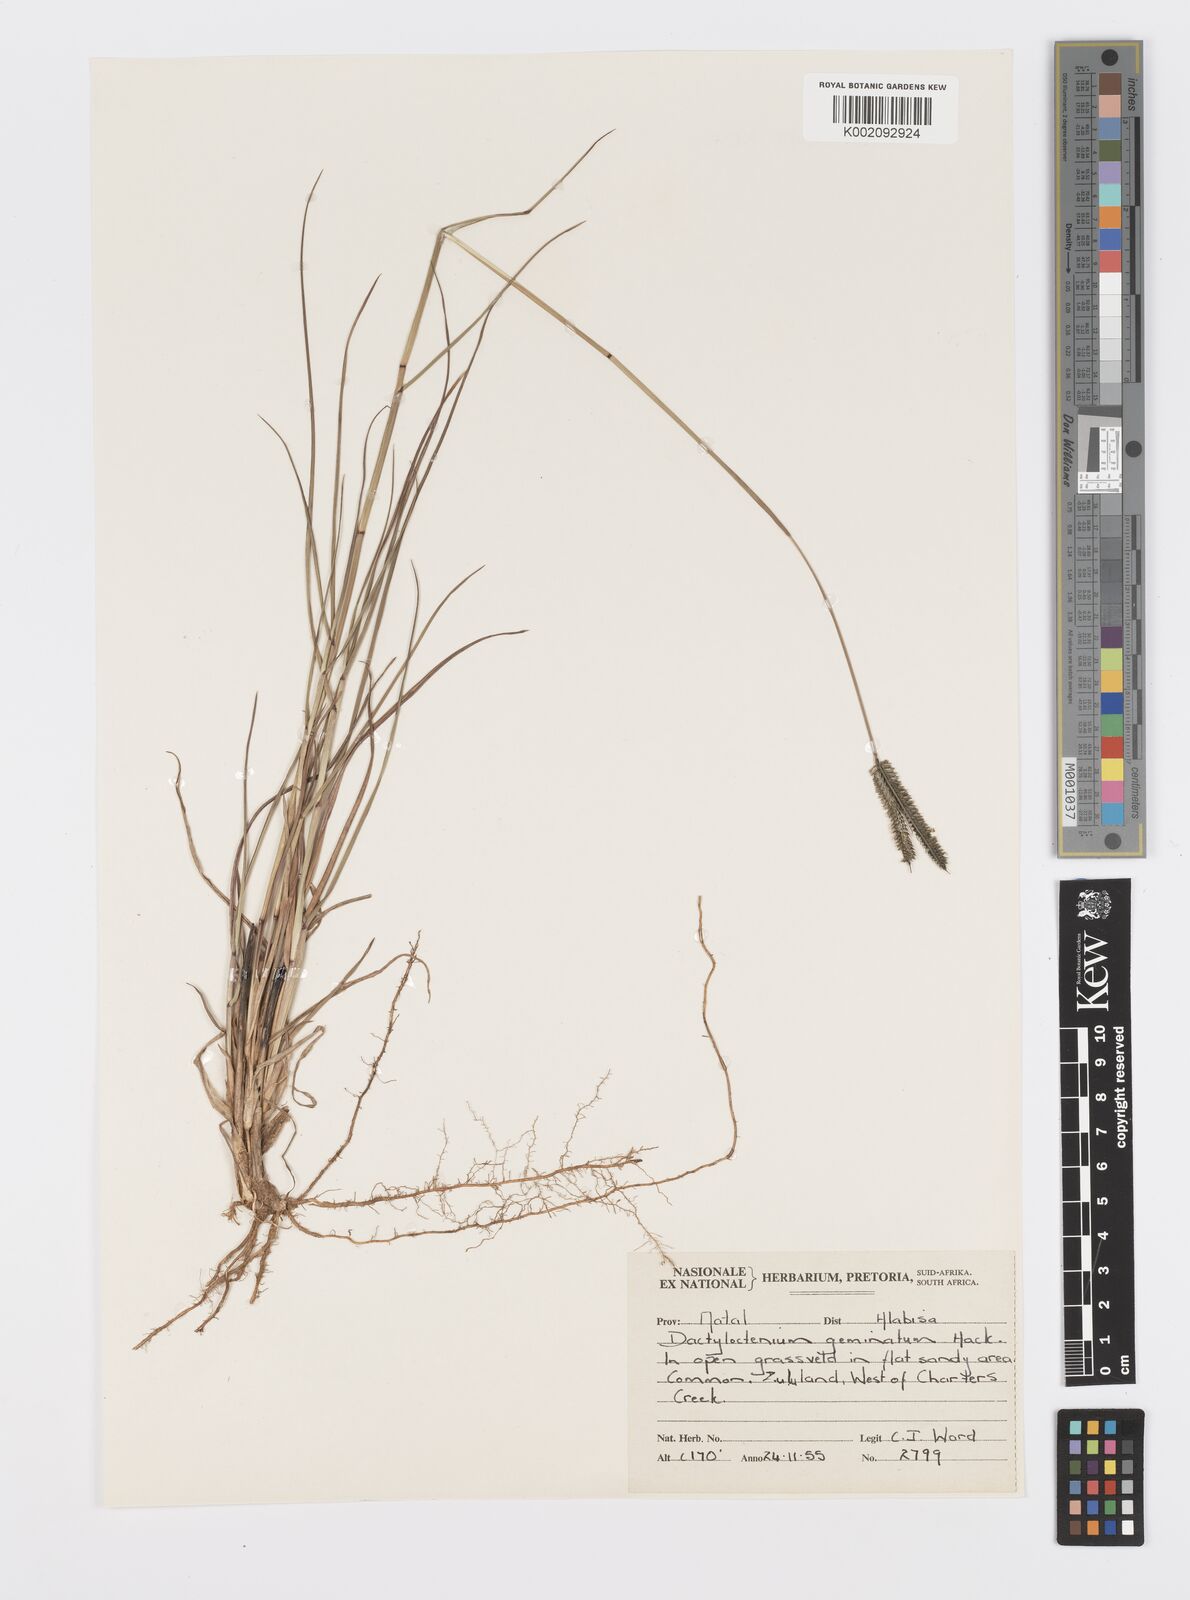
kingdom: Plantae
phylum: Tracheophyta
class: Liliopsida
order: Poales
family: Poaceae
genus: Dactyloctenium
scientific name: Dactyloctenium geminatum
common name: Crowsfoot grass
